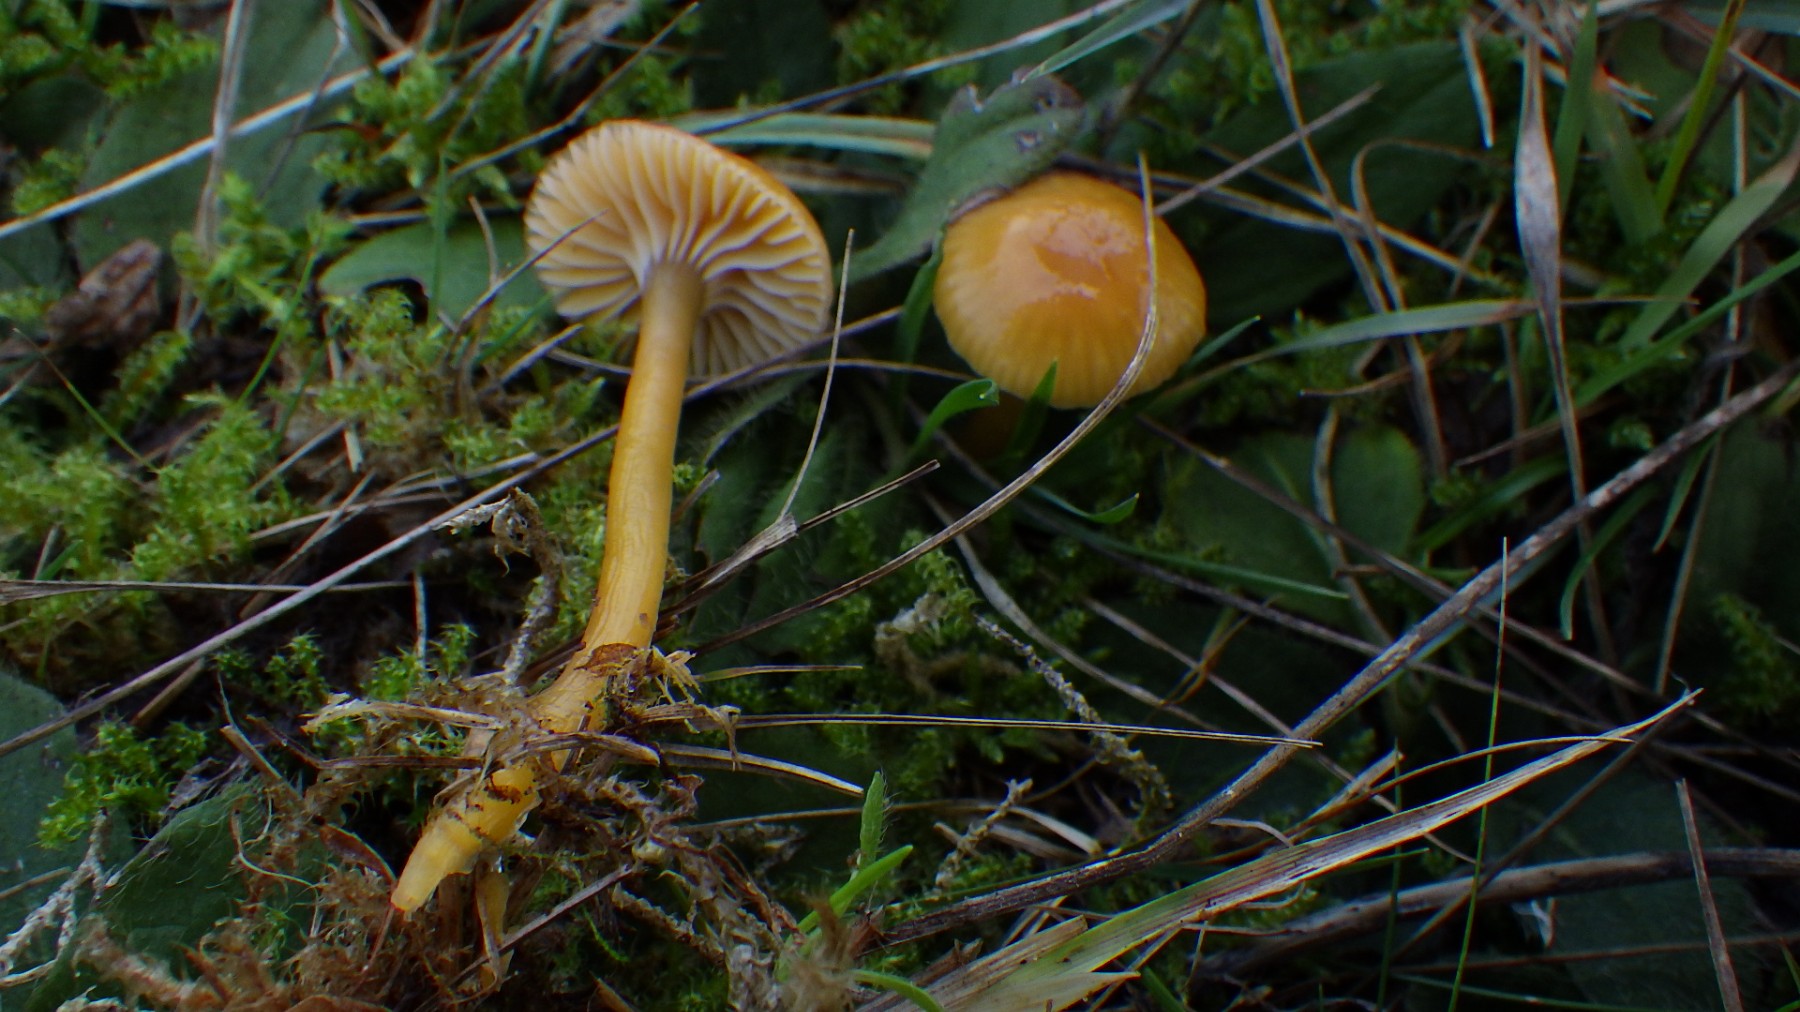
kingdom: Fungi
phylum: Basidiomycota
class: Agaricomycetes
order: Agaricales
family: Hygrophoraceae
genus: Gliophorus
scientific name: Gliophorus laetus
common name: brusk-vokshat
